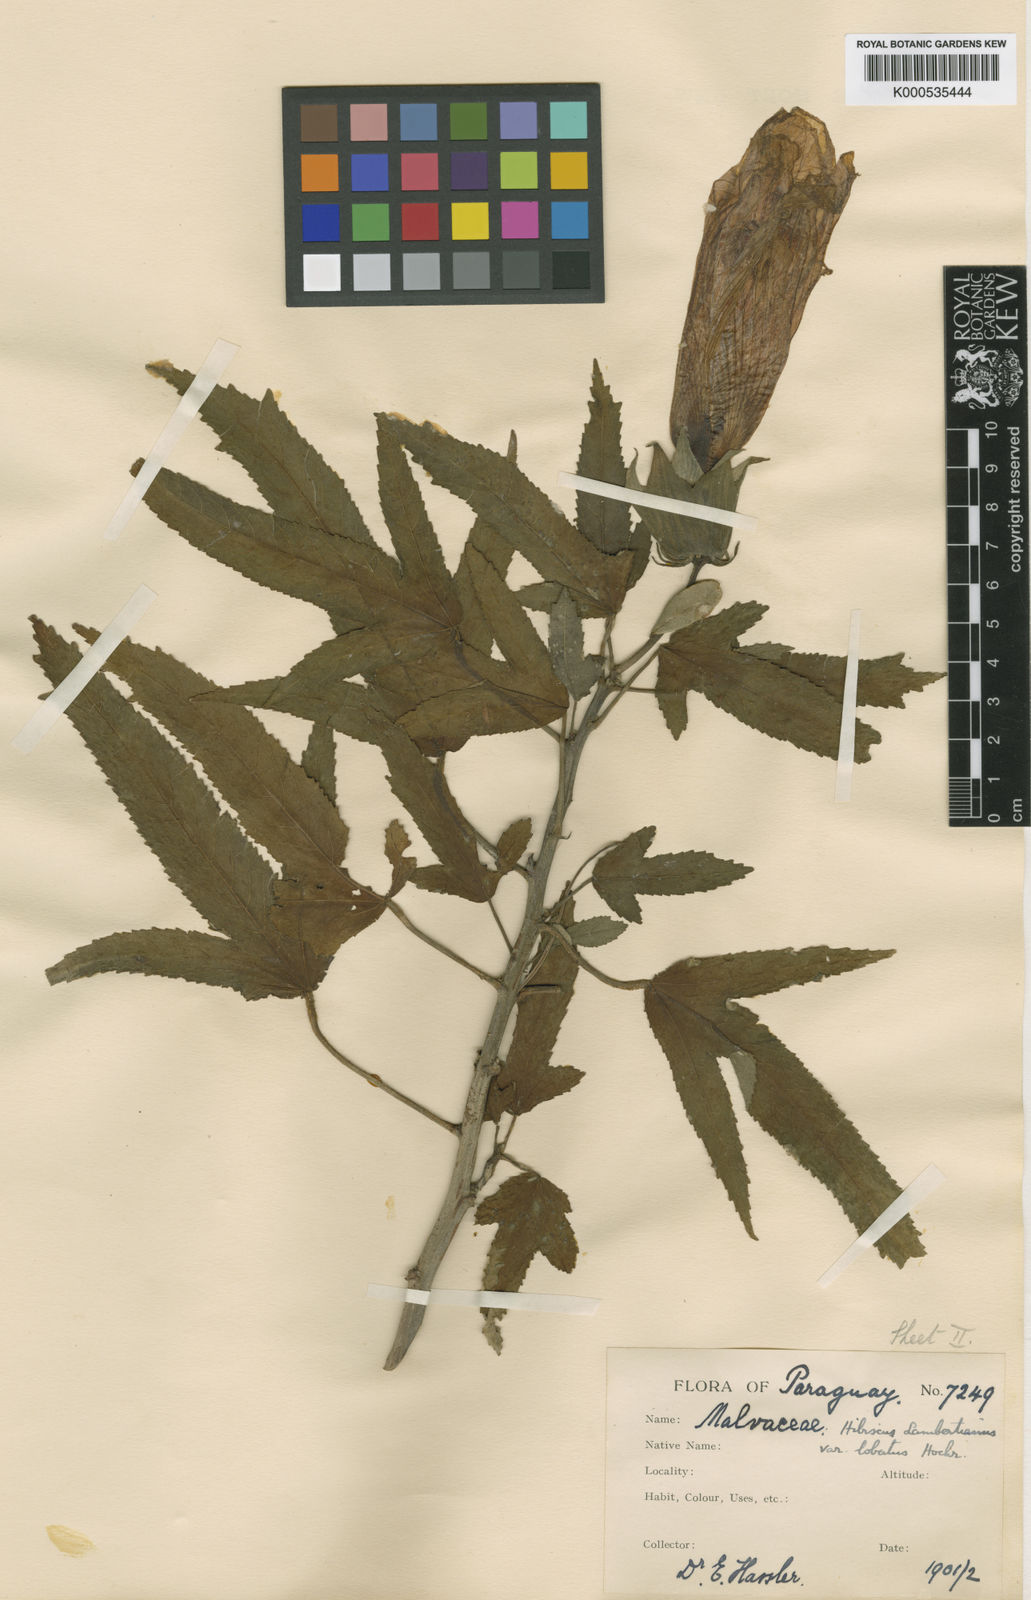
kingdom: Plantae
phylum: Tracheophyta
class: Magnoliopsida
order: Malvales
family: Malvaceae
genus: Hibiscus
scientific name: Hibiscus striatus
